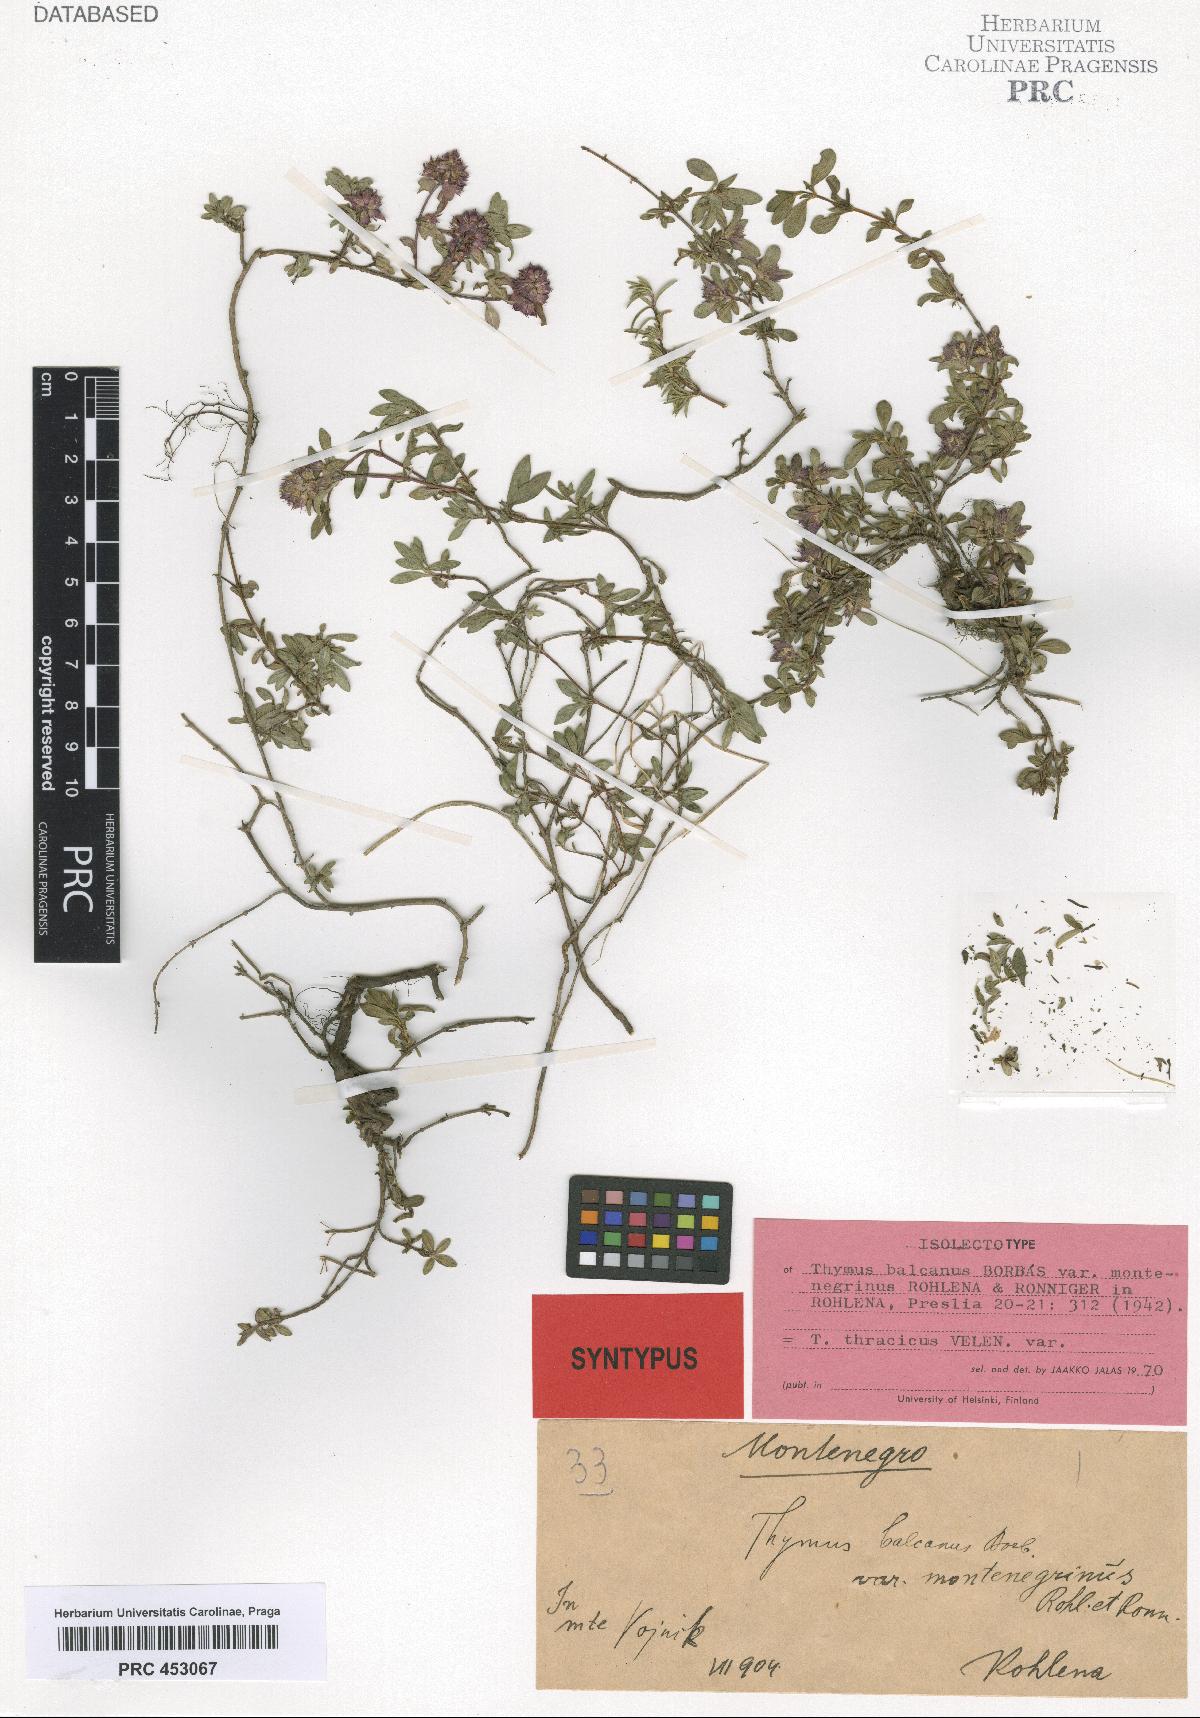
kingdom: Plantae
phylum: Tracheophyta
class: Magnoliopsida
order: Lamiales
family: Lamiaceae
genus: Thymus
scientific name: Thymus thracicus
